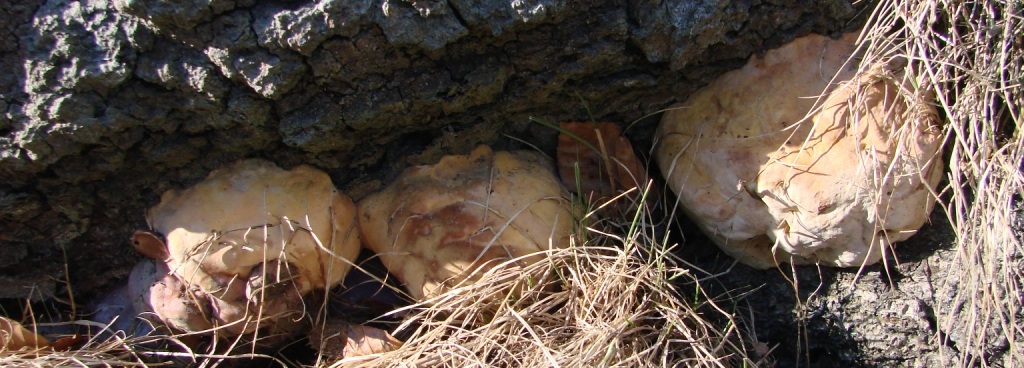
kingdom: Fungi
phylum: Basidiomycota
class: Agaricomycetes
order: Polyporales
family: Polyporaceae
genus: Ganoderma
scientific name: Ganoderma pfeifferi
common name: kobberrød lakporesvamp
